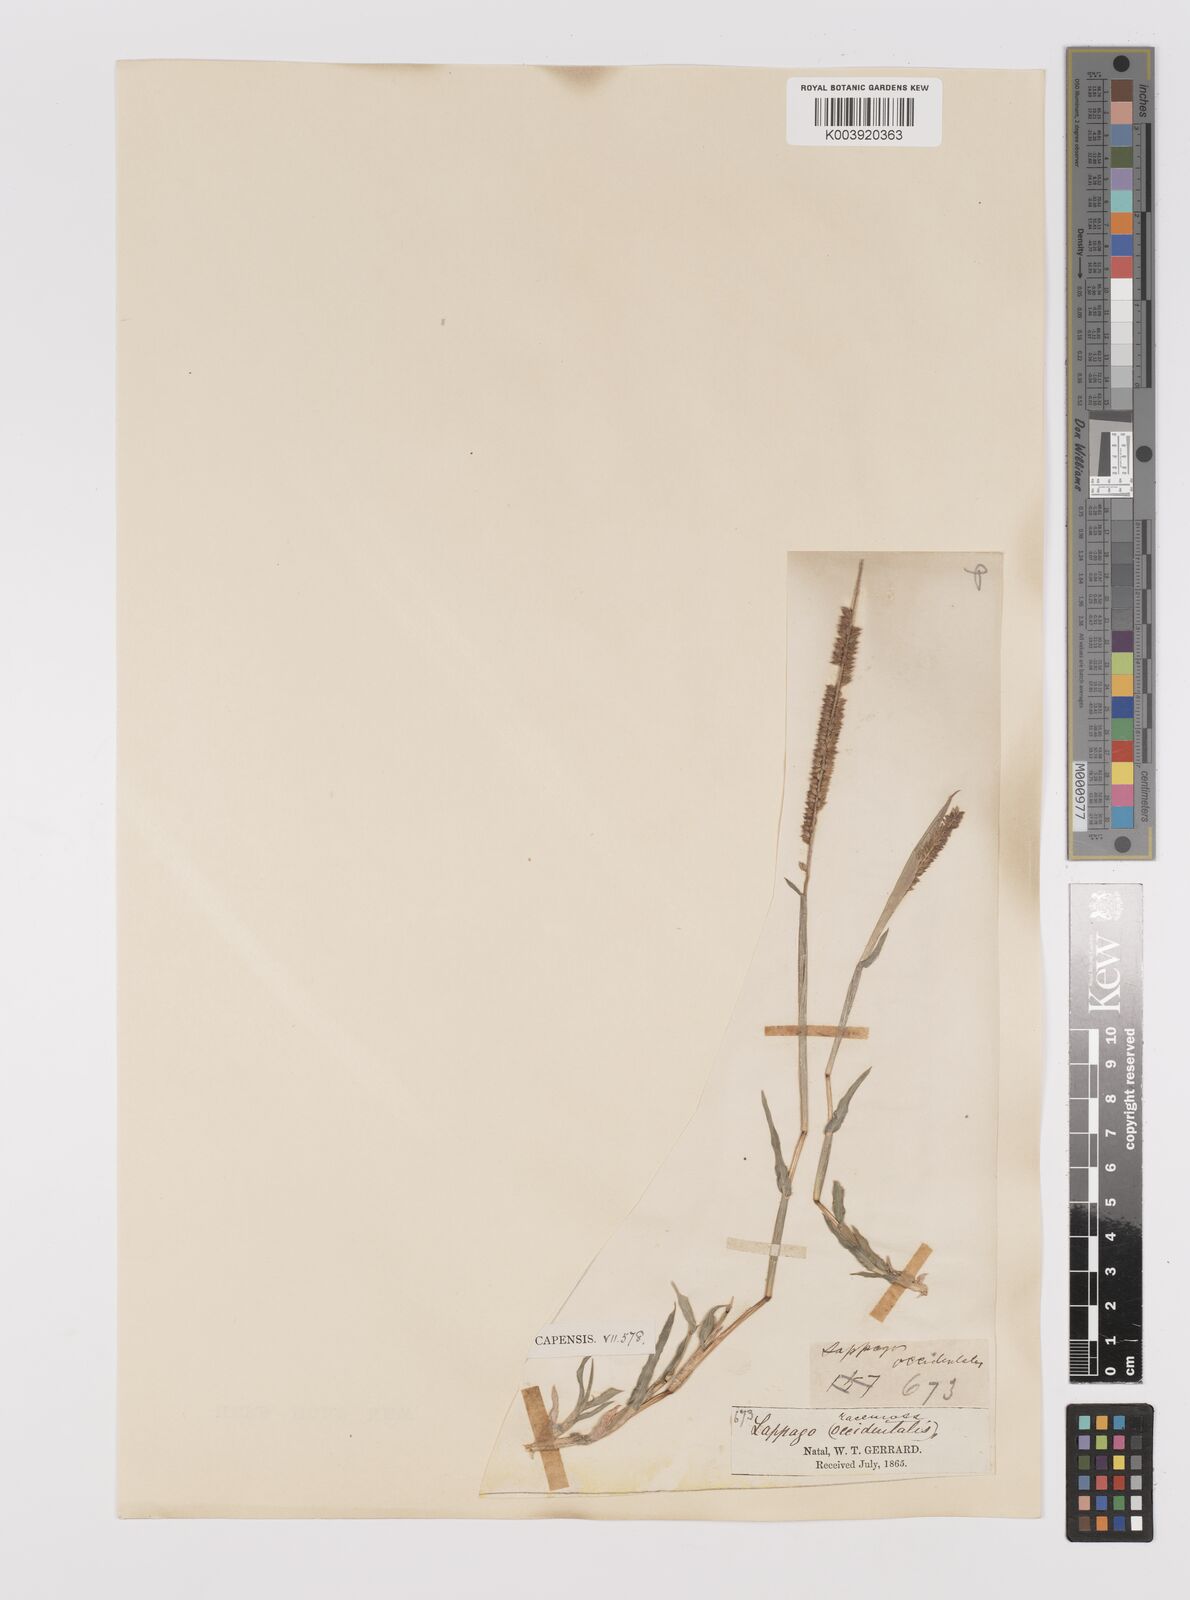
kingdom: Plantae
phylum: Tracheophyta
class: Liliopsida
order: Poales
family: Poaceae
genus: Tragus
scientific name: Tragus berteronianus
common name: African bur-grass
